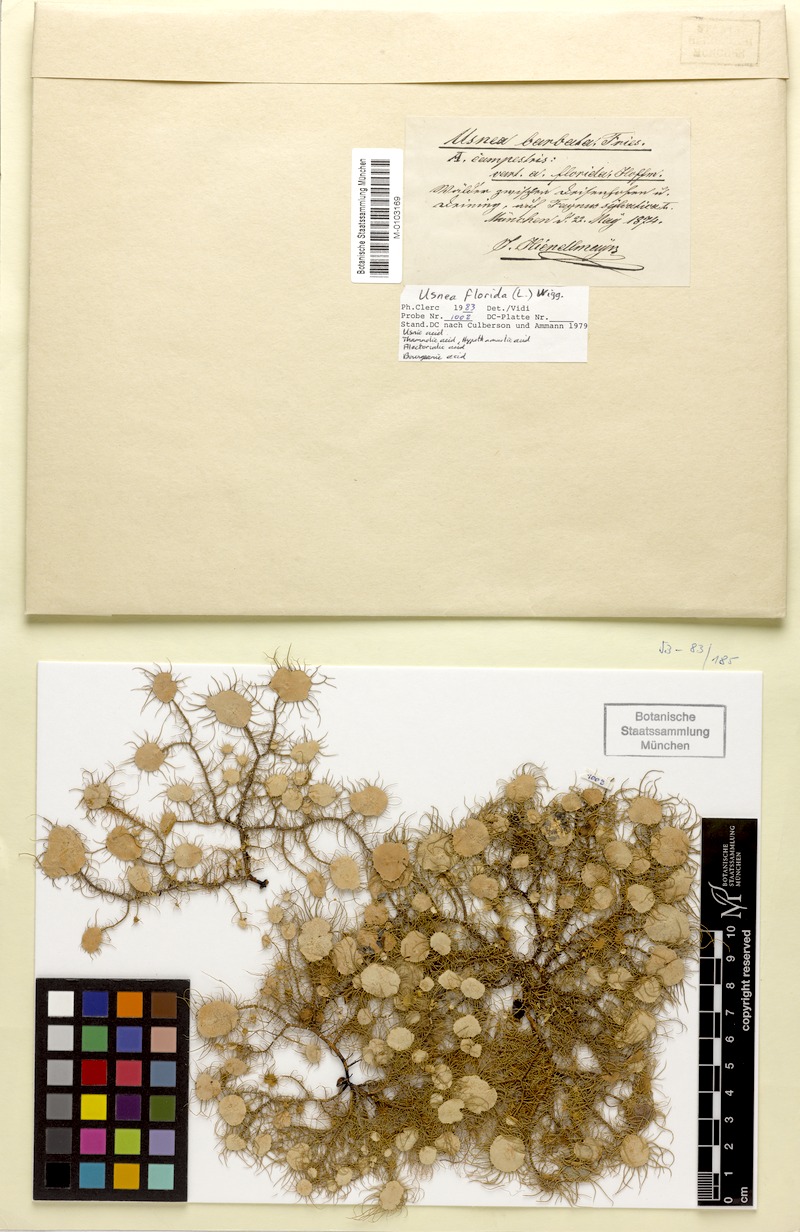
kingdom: Fungi
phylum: Ascomycota
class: Lecanoromycetes
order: Lecanorales
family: Parmeliaceae
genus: Usnea
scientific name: Usnea florida
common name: Witches' whiskers lichen
